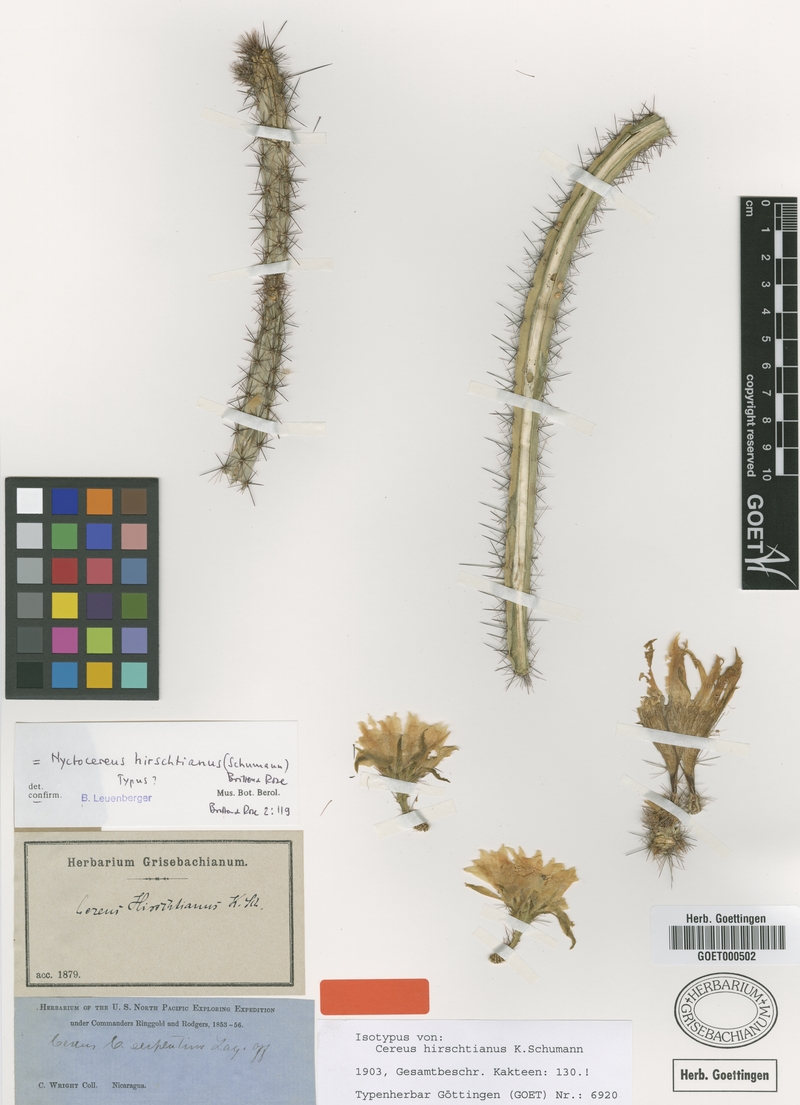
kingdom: Plantae
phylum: Tracheophyta
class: Magnoliopsida
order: Caryophyllales
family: Cactaceae
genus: Acanthocereus
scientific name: Acanthocereus hirschtianus
